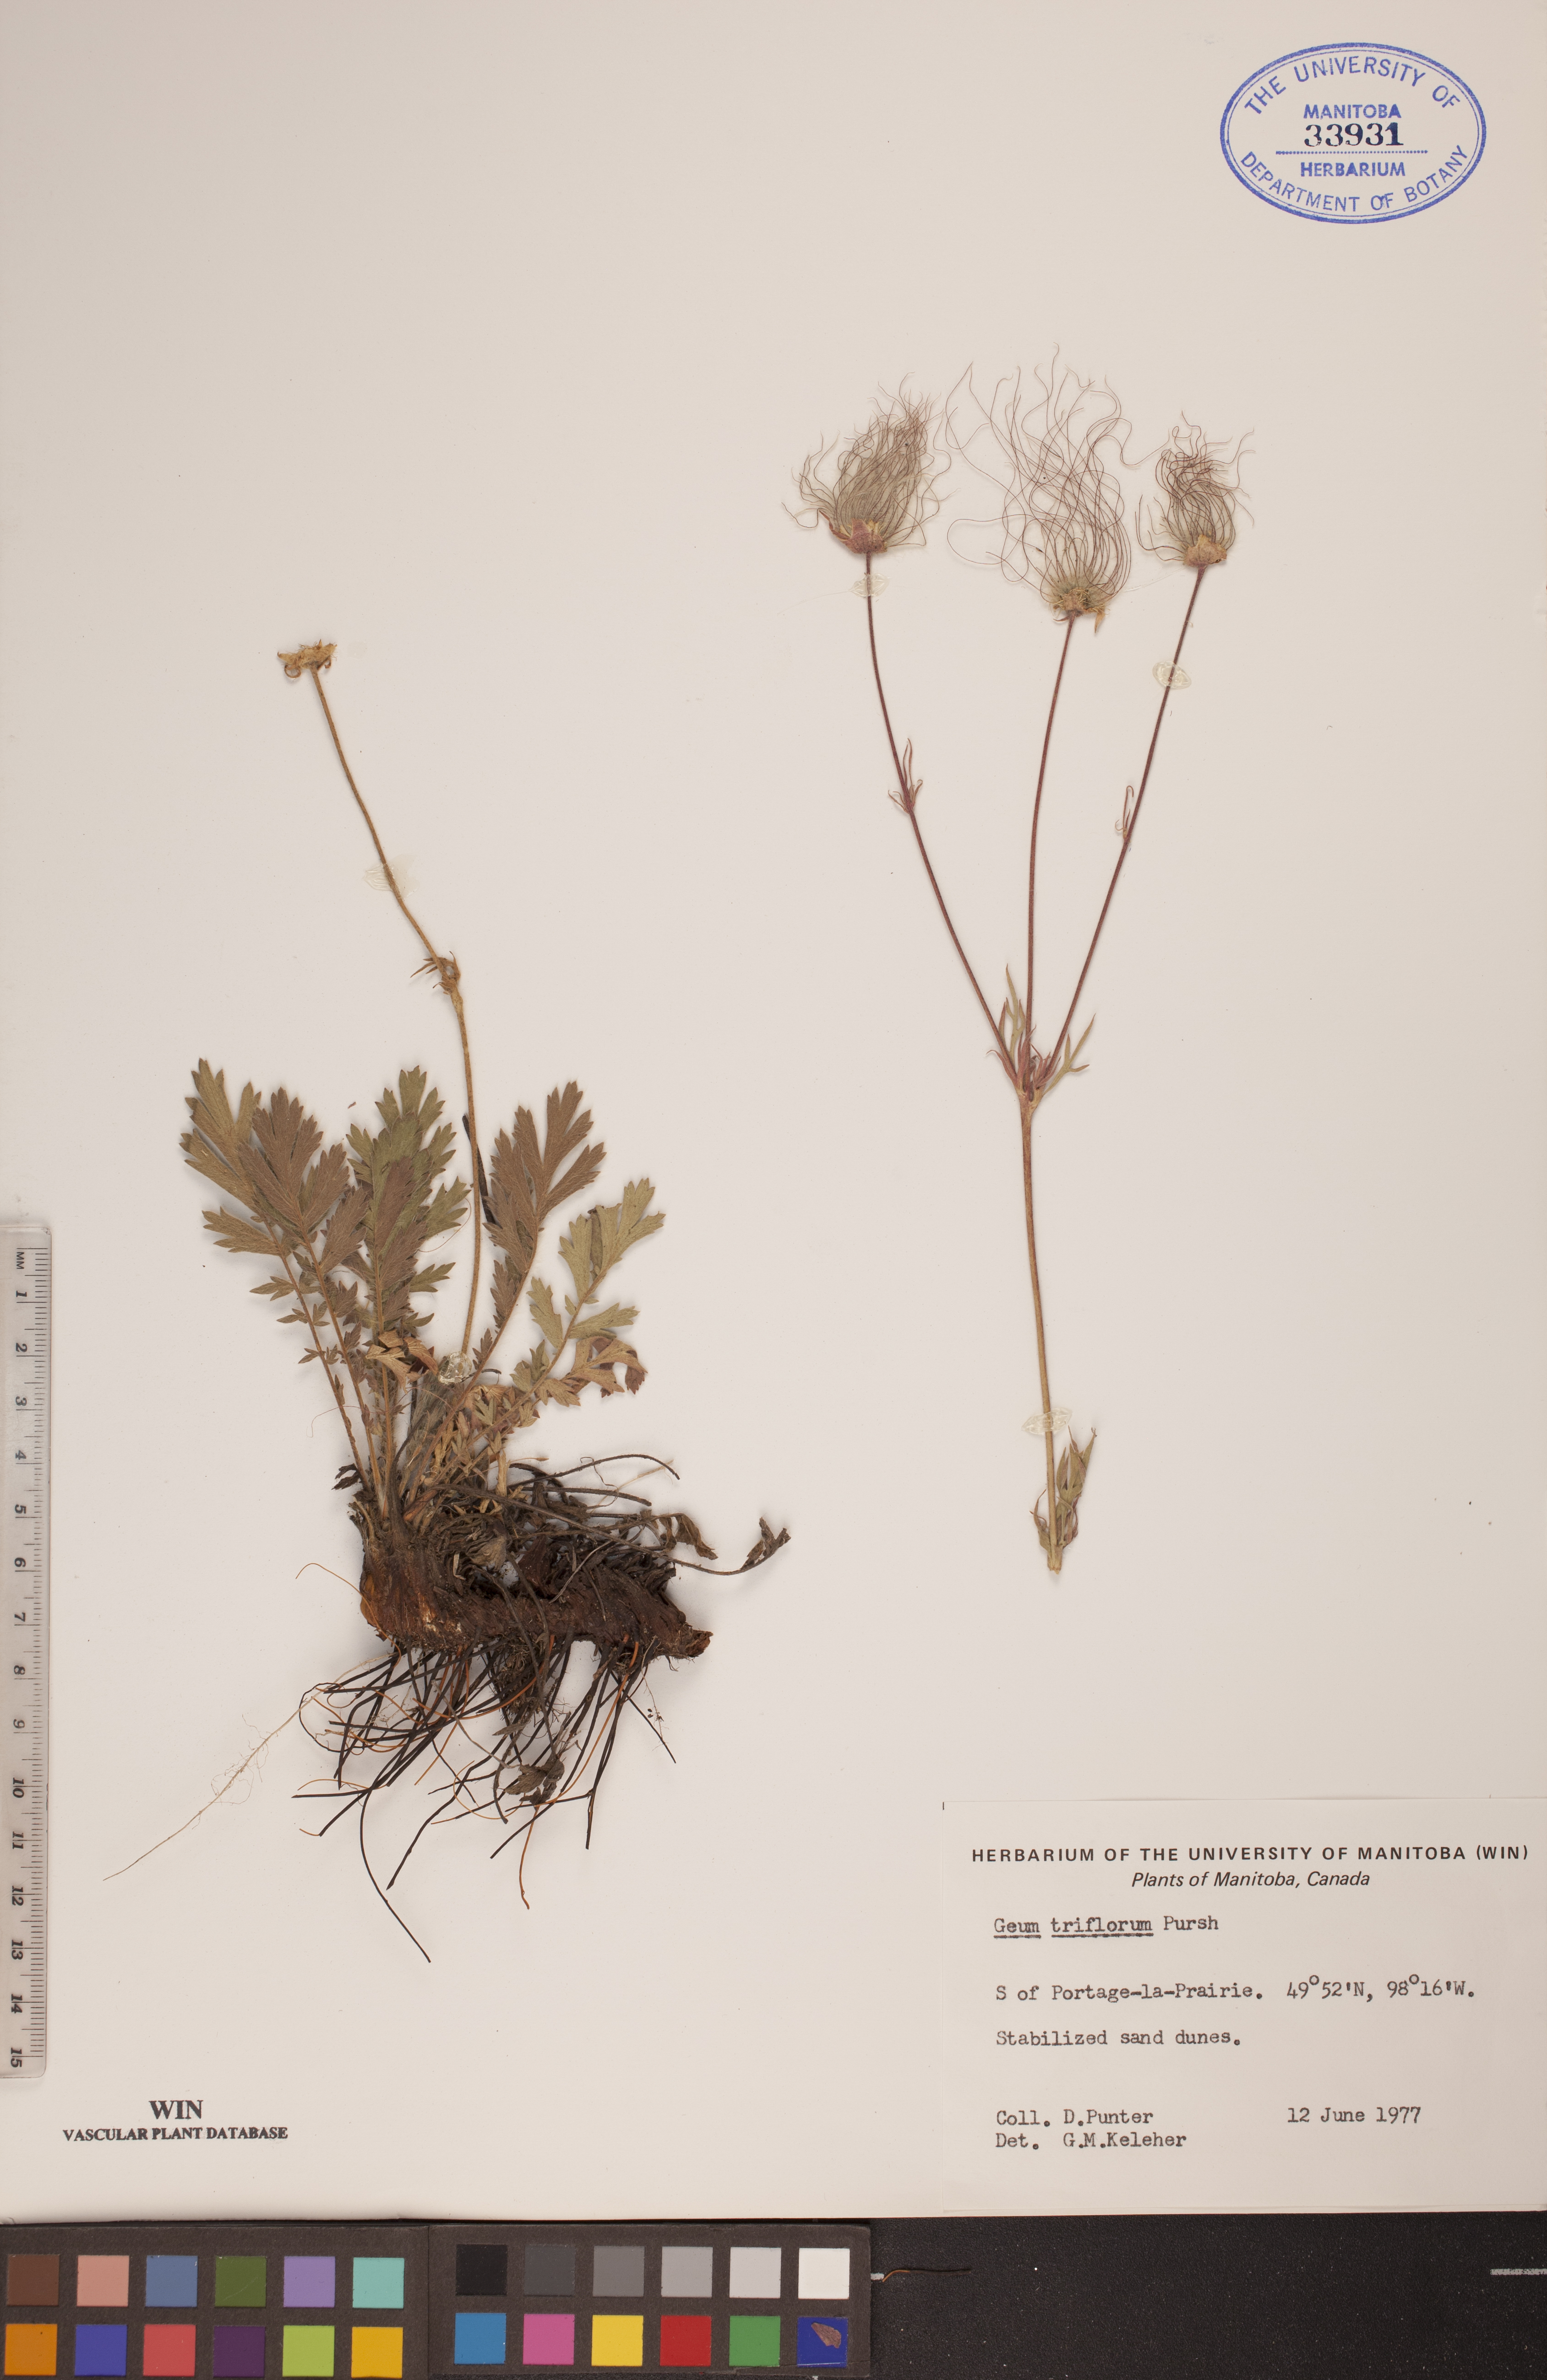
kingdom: Plantae
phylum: Tracheophyta
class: Magnoliopsida
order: Rosales
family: Rosaceae
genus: Geum
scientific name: Geum triflorum
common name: Old man's whiskers
